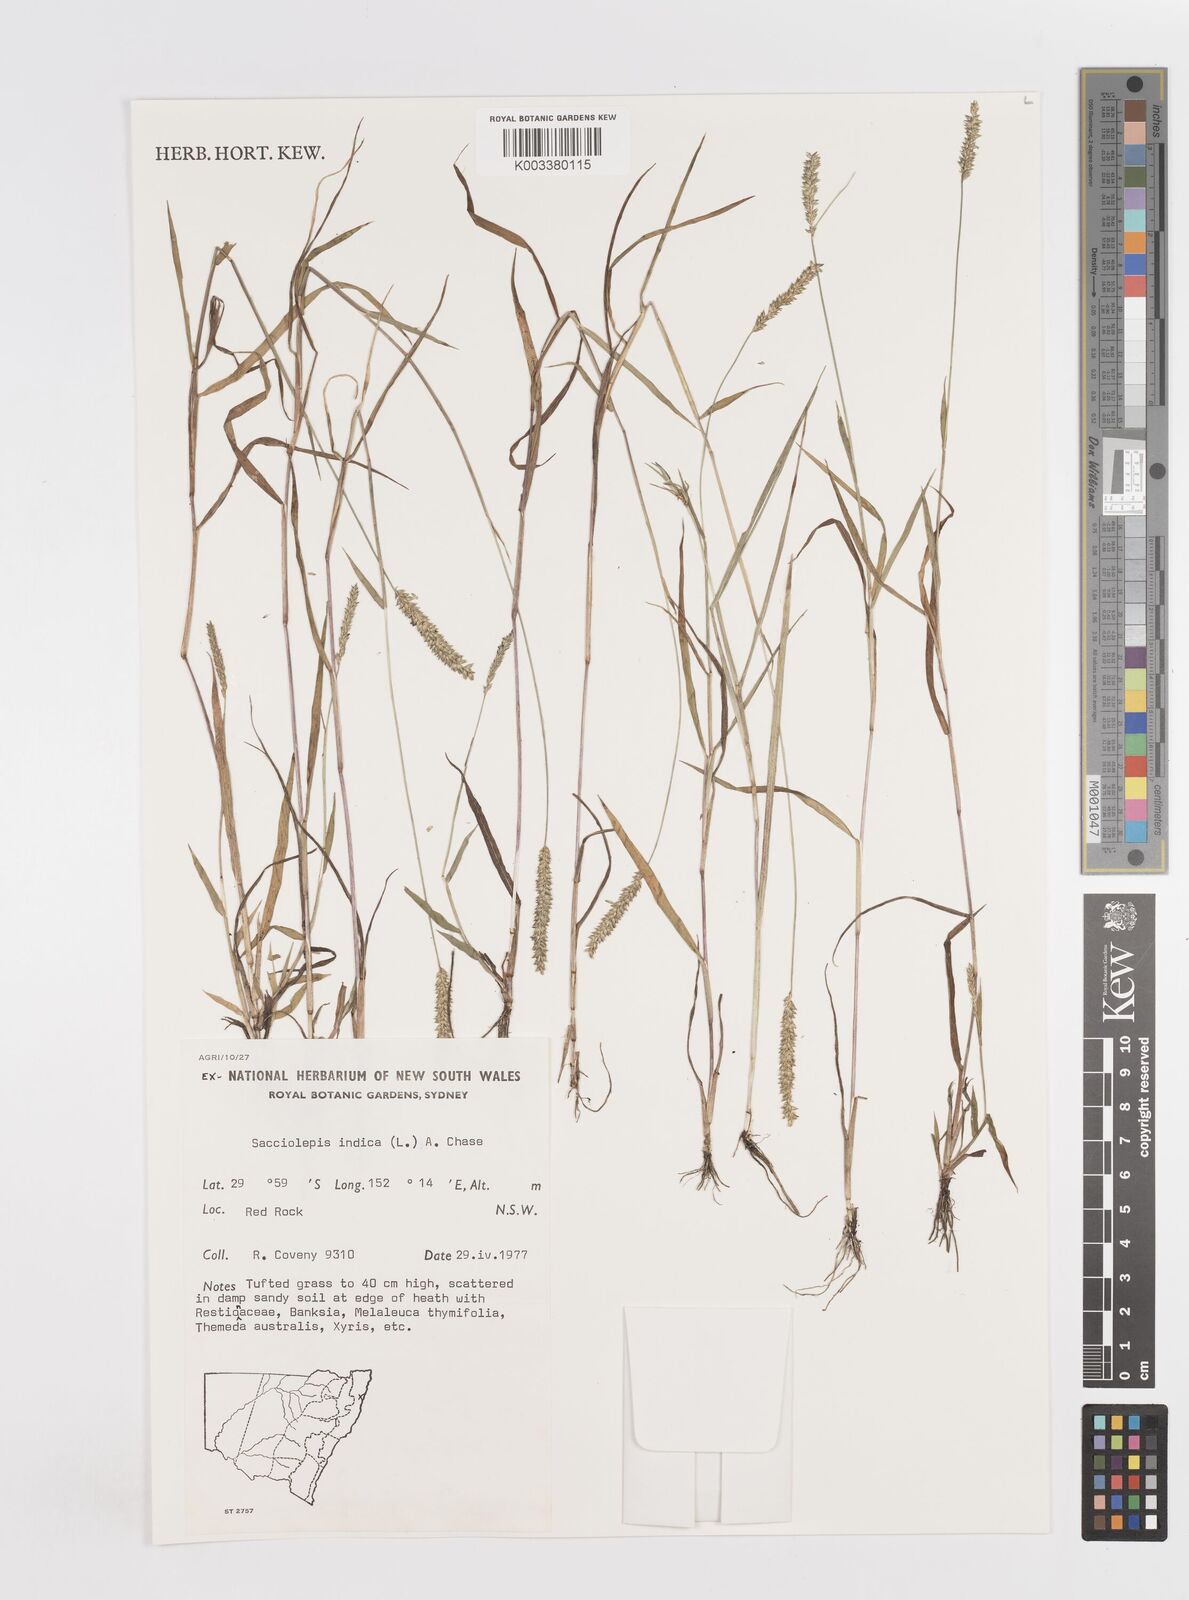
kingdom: Plantae
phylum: Tracheophyta
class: Liliopsida
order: Poales
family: Poaceae
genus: Sacciolepis
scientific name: Sacciolepis indica
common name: Glenwoodgrass
